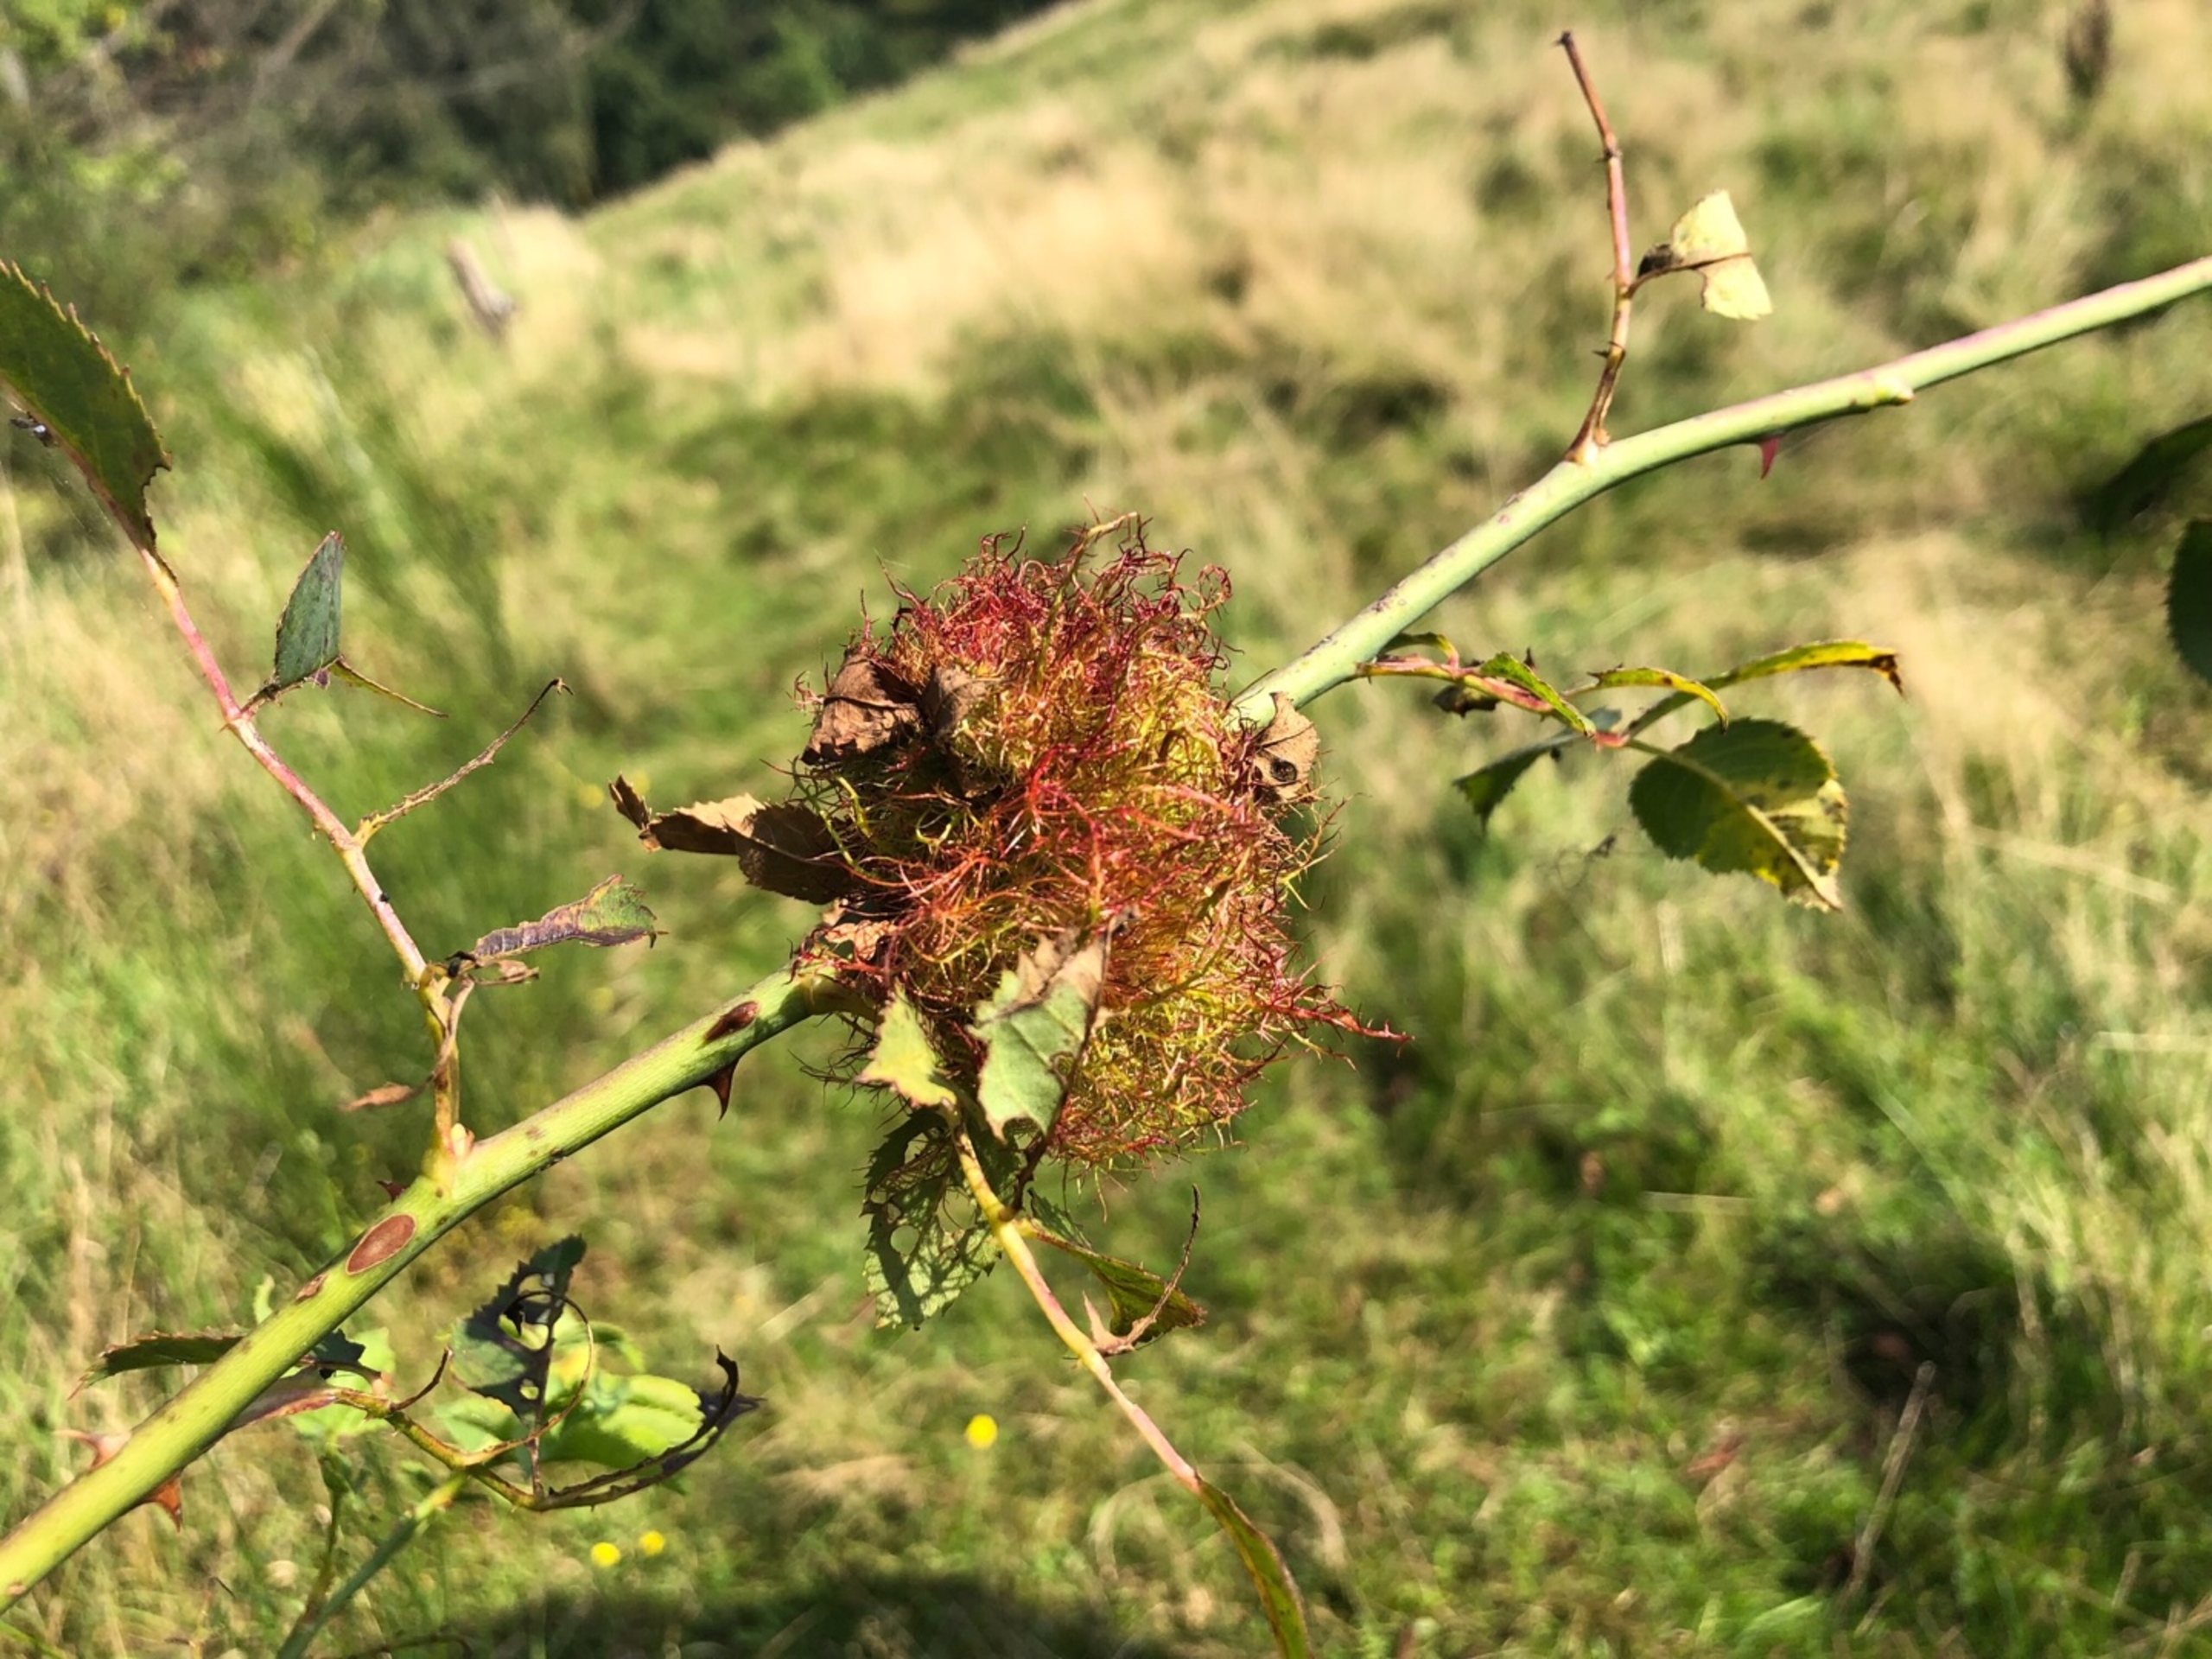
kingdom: Animalia
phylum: Arthropoda
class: Insecta
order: Hymenoptera
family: Cynipidae
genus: Diplolepis
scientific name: Diplolepis rosae
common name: Bedeguargalhveps
